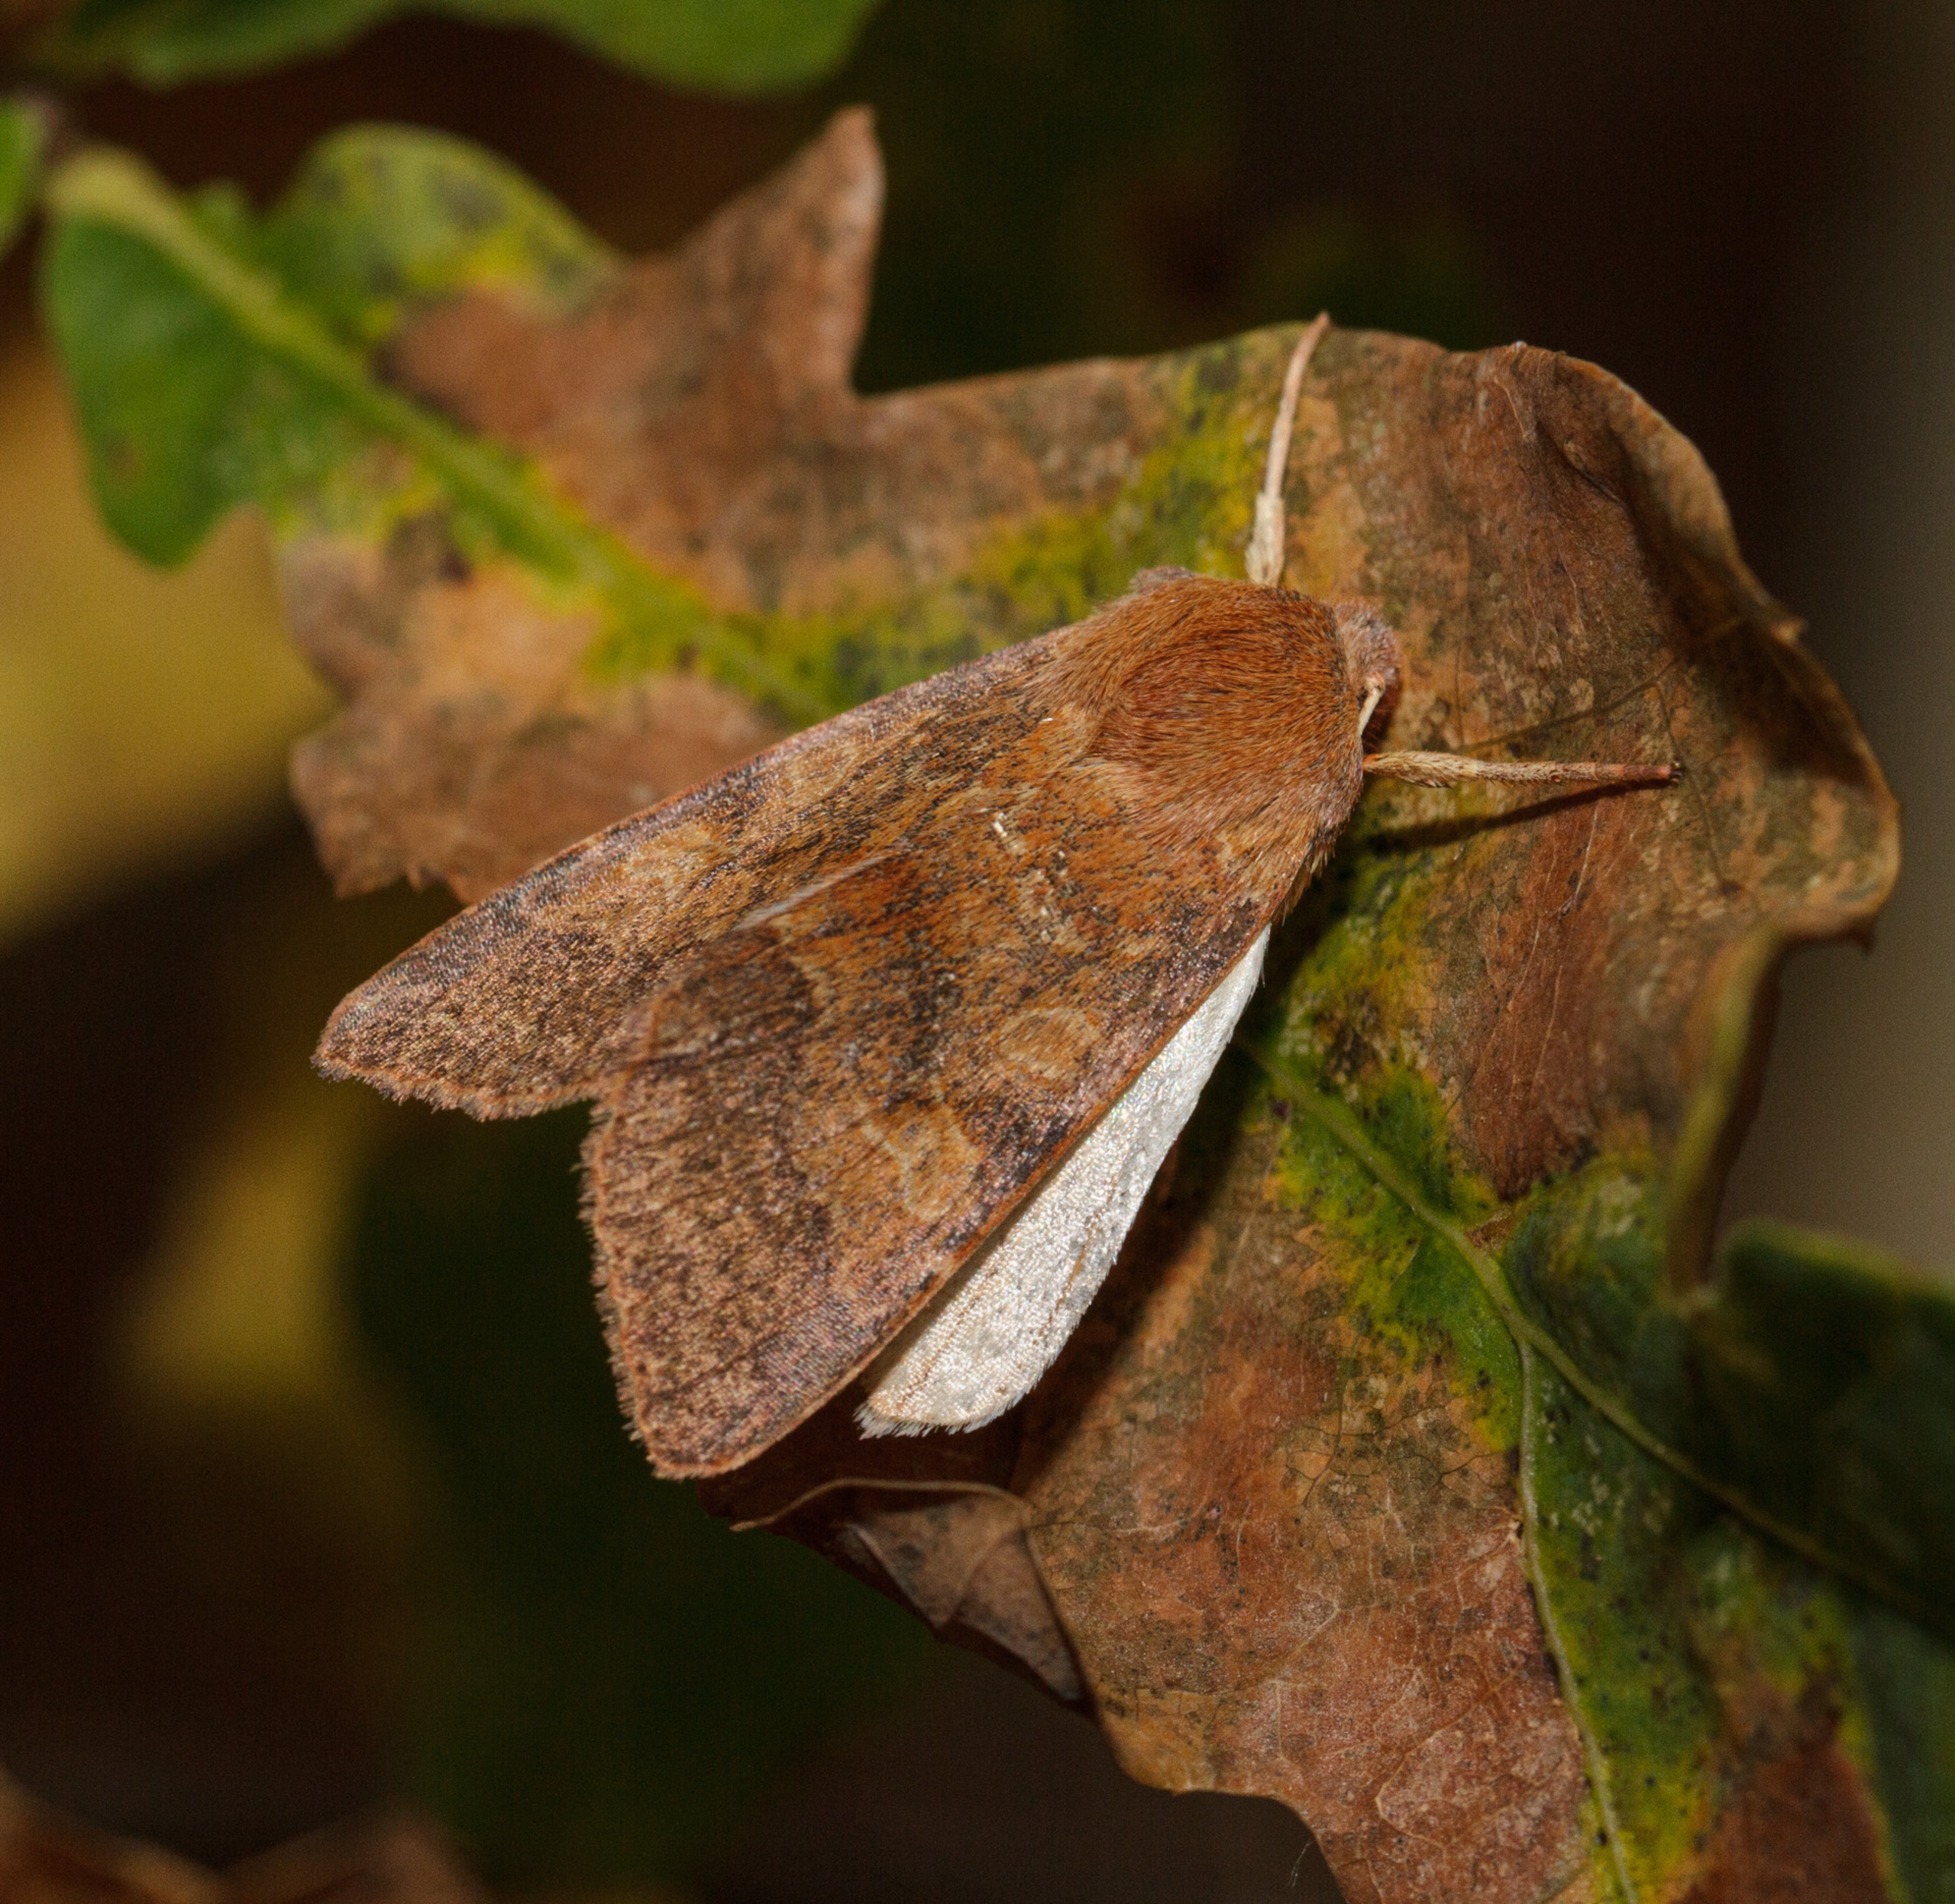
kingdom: Animalia
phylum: Arthropoda
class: Insecta
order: Lepidoptera
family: Noctuidae
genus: Agrochola
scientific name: Agrochola Anchoscelis helvola
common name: Rød høstugle
